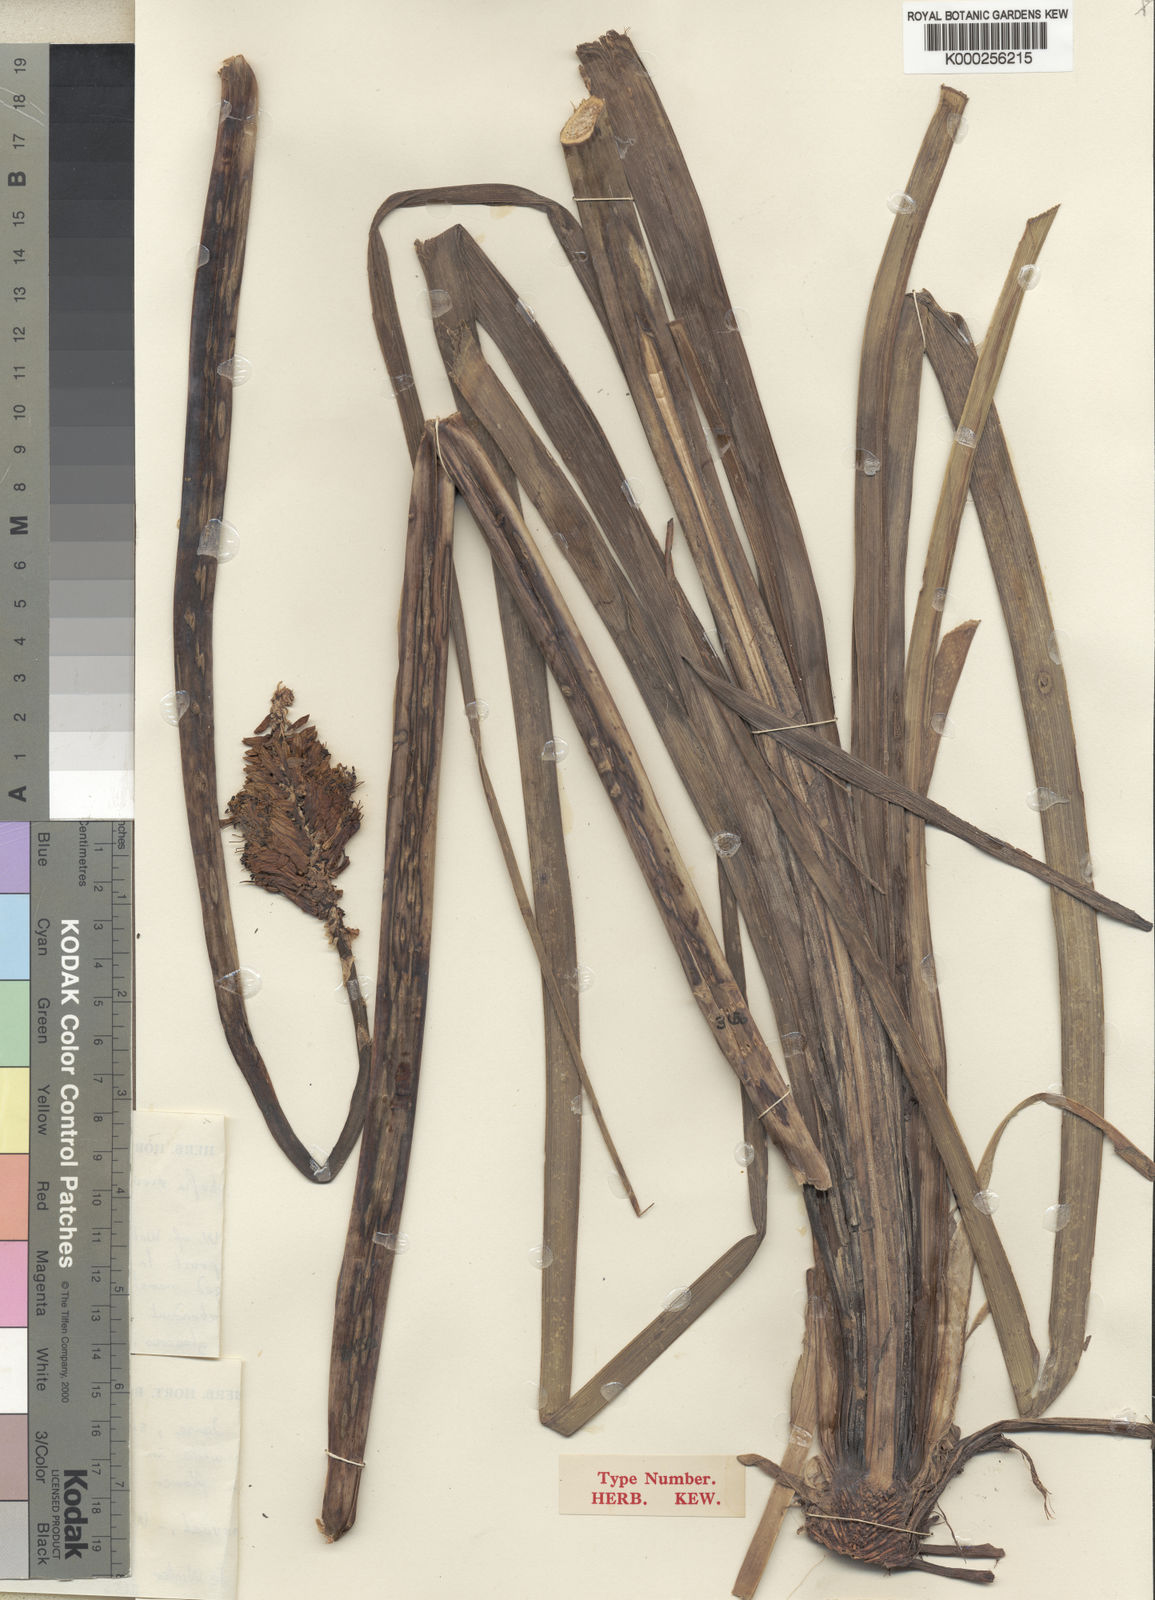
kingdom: Plantae
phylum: Tracheophyta
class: Liliopsida
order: Asparagales
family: Asphodelaceae
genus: Kniphofia
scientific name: Kniphofia ensifolia
